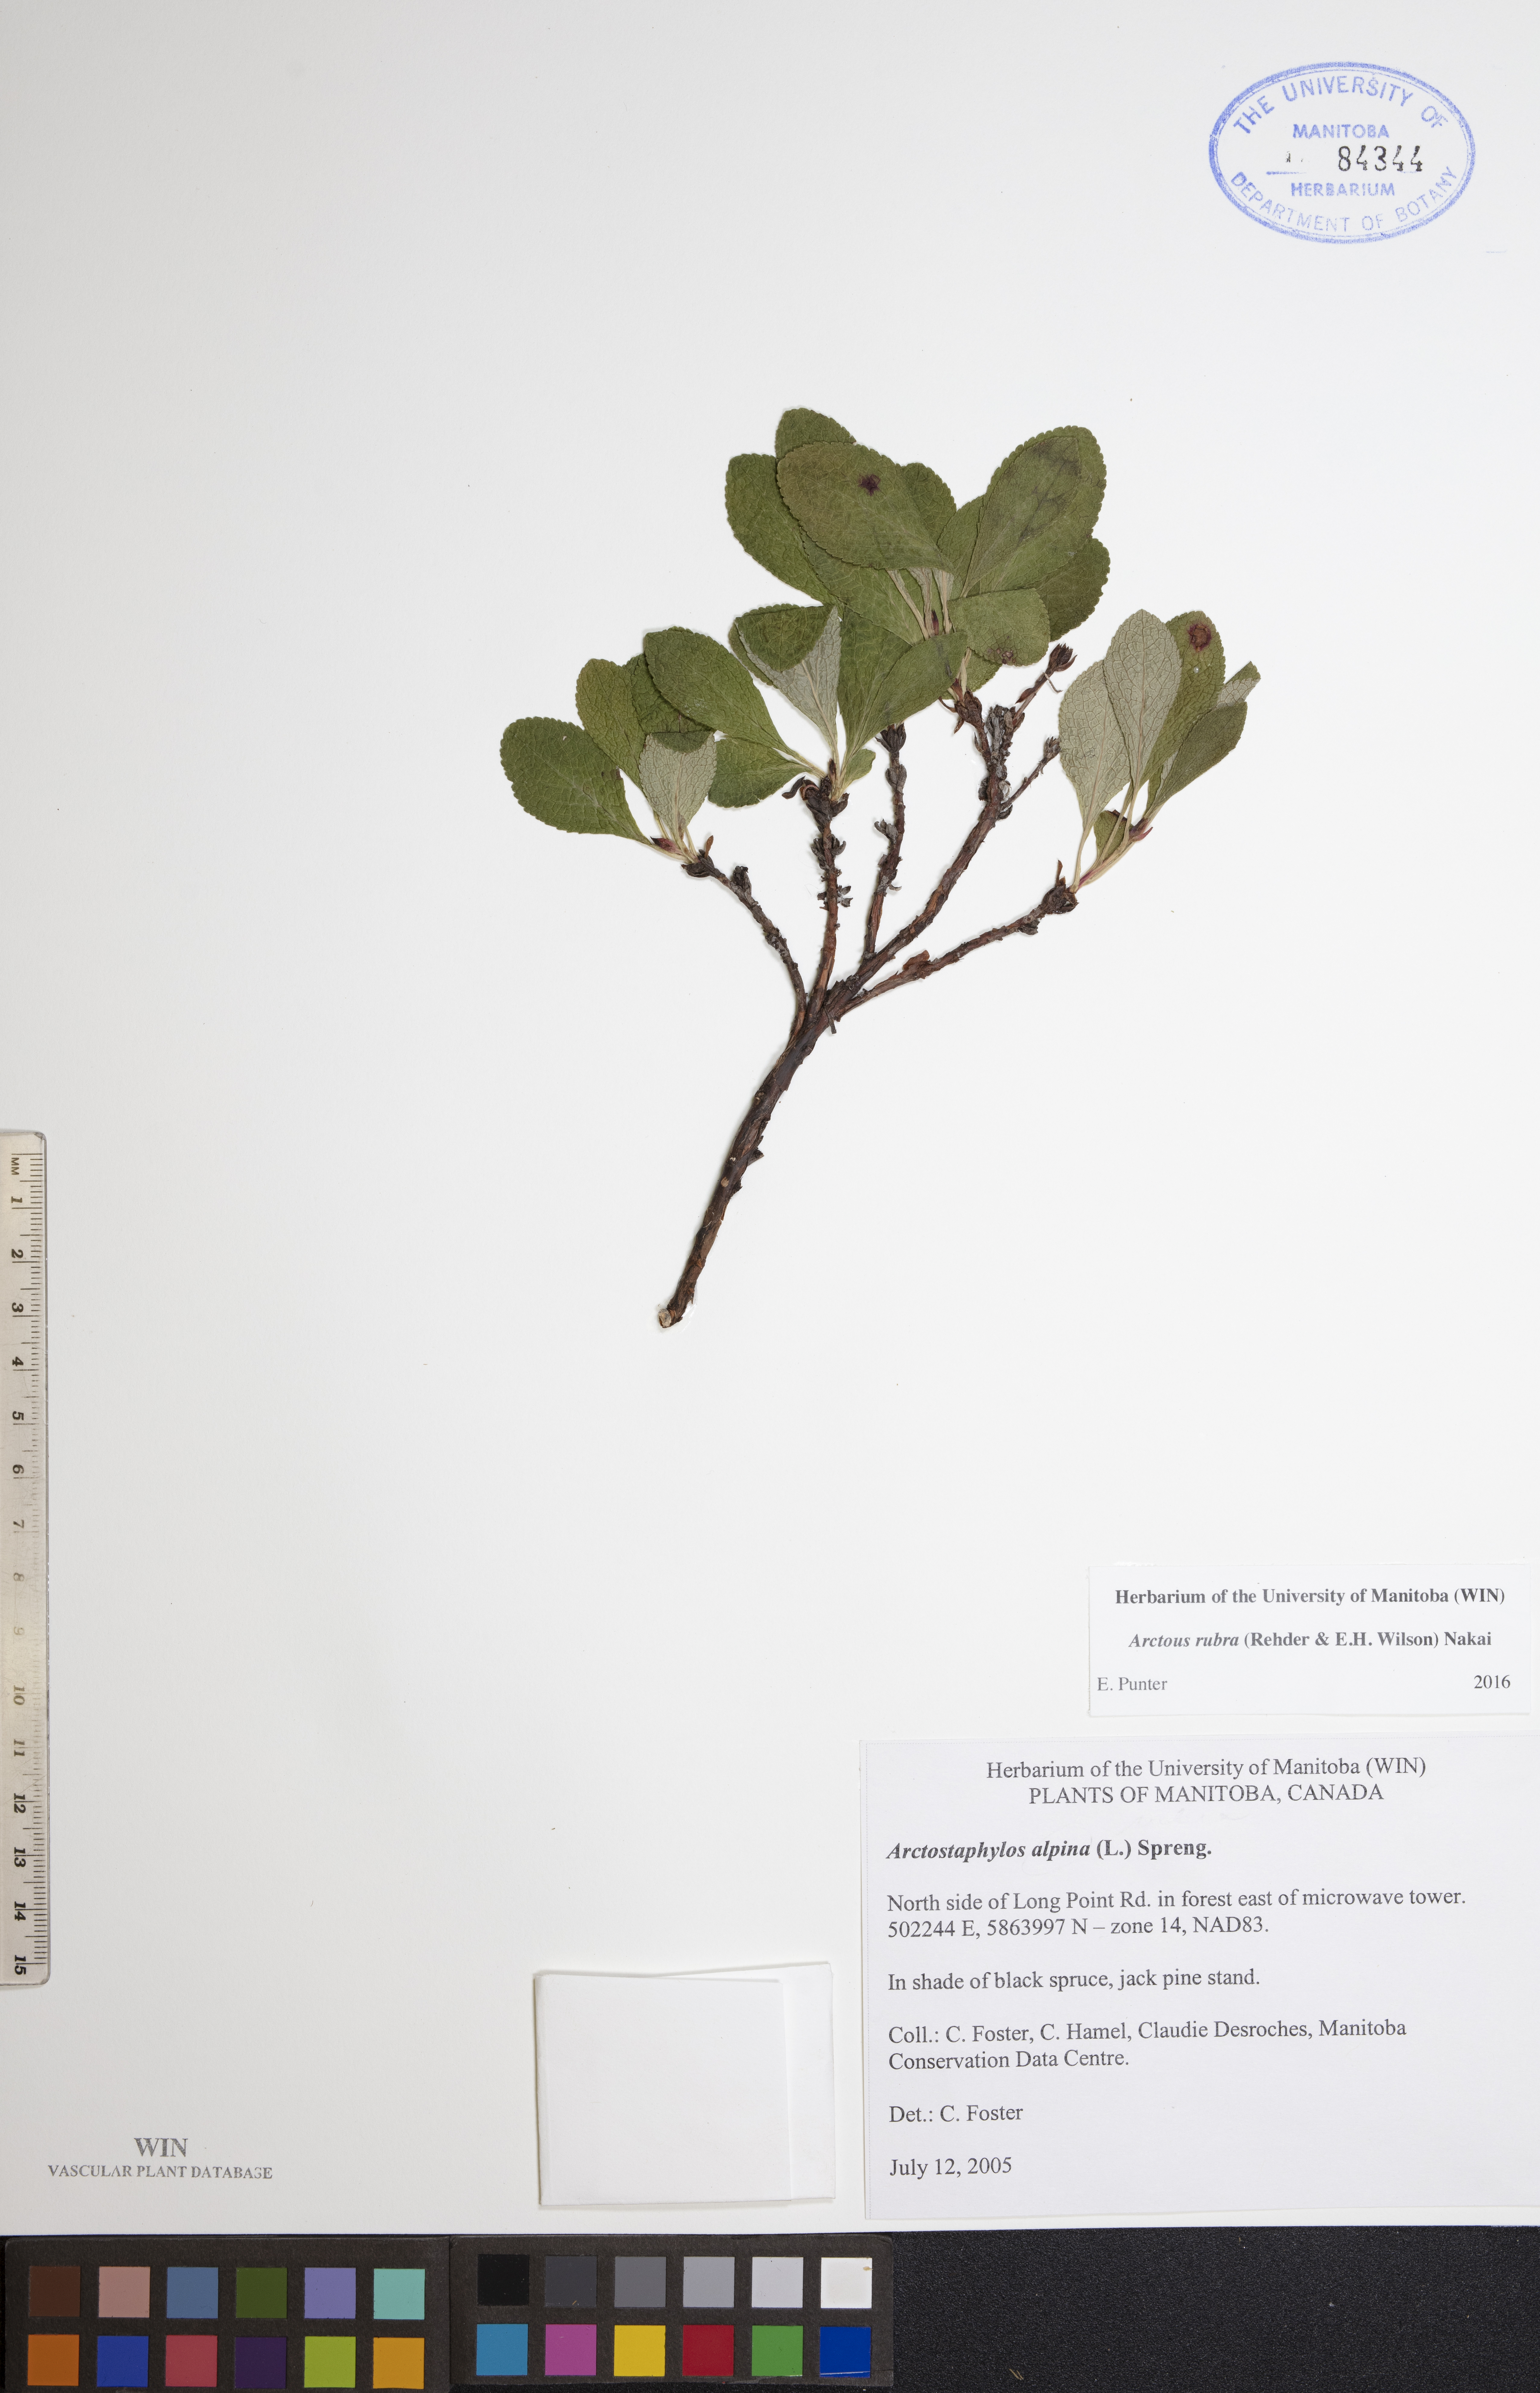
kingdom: Plantae
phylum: Tracheophyta
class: Magnoliopsida
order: Ericales
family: Ericaceae
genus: Arctostaphylos
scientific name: Arctostaphylos rubra
